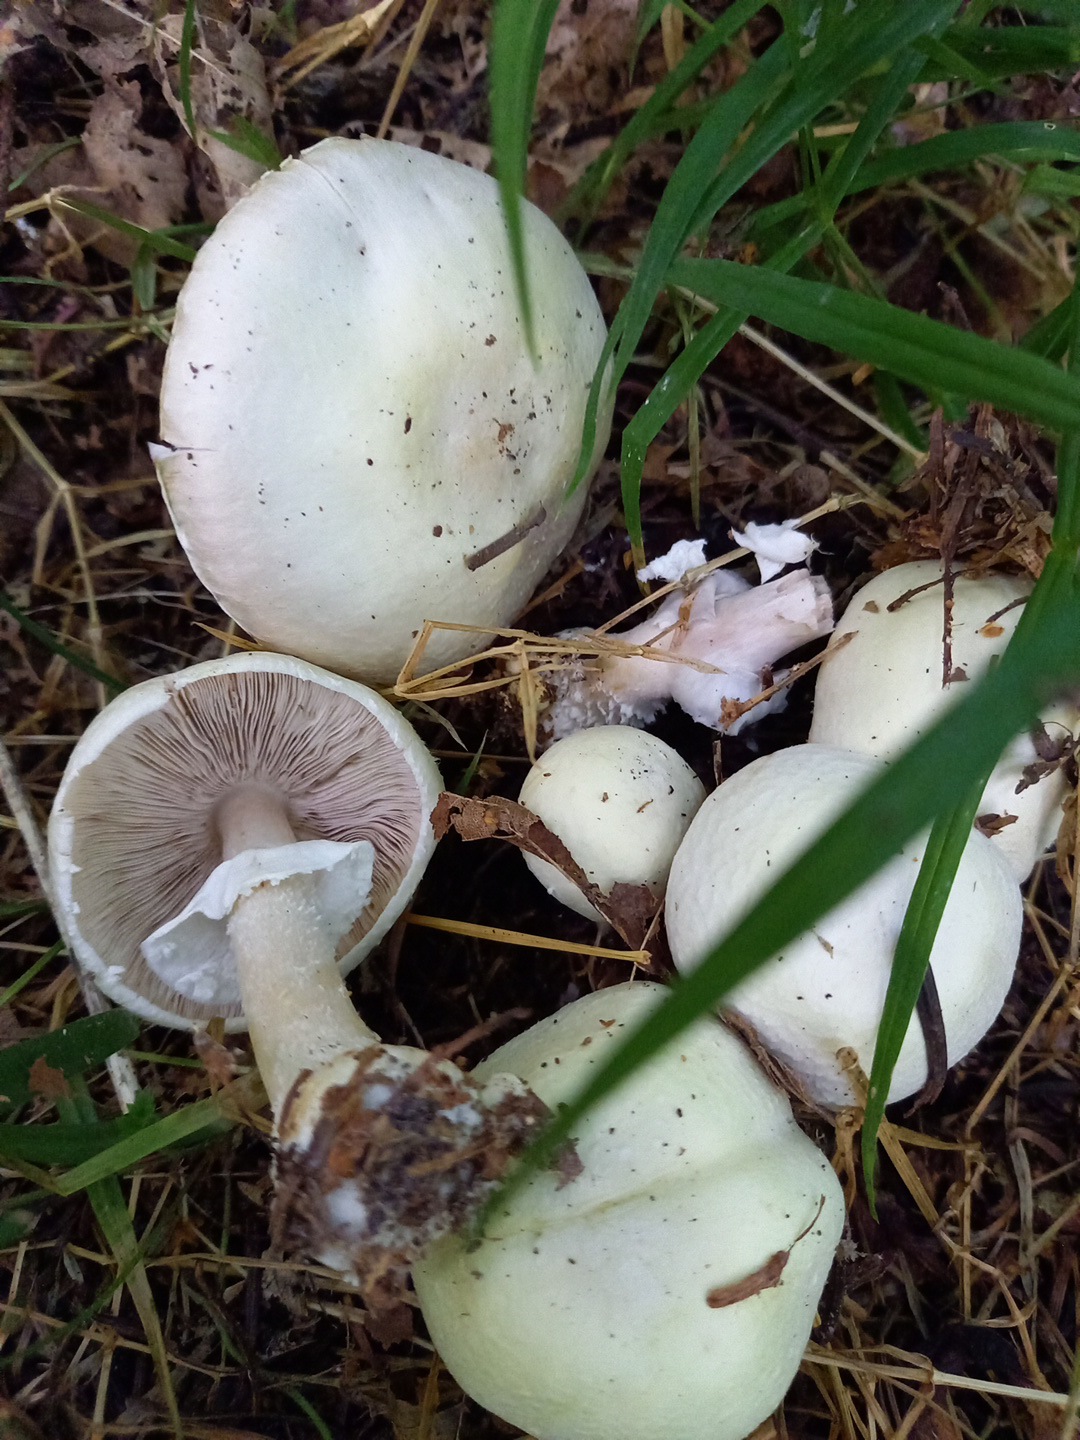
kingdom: Fungi
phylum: Basidiomycota
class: Agaricomycetes
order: Agaricales
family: Agaricaceae
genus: Agaricus
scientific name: Agaricus sylvicola
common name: gulhvid champignon
